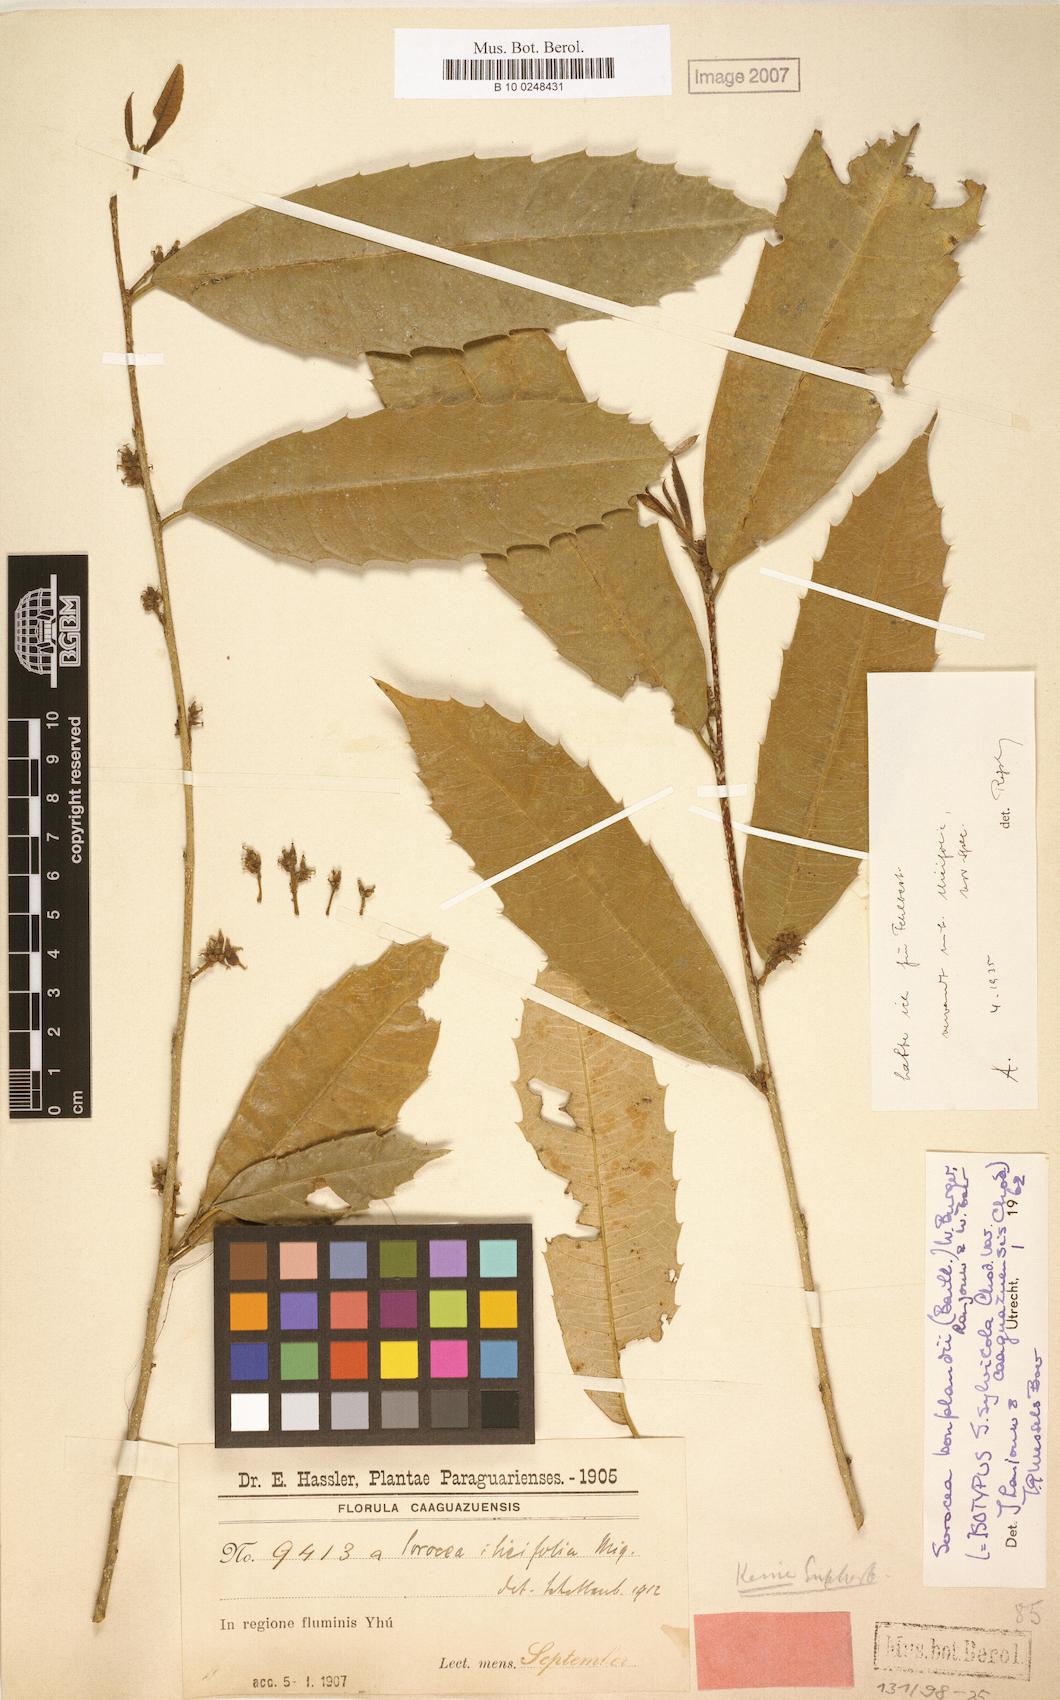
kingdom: Plantae
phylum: Tracheophyta
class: Magnoliopsida
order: Rosales
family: Moraceae
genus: Sorocea
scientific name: Sorocea bonplandii
